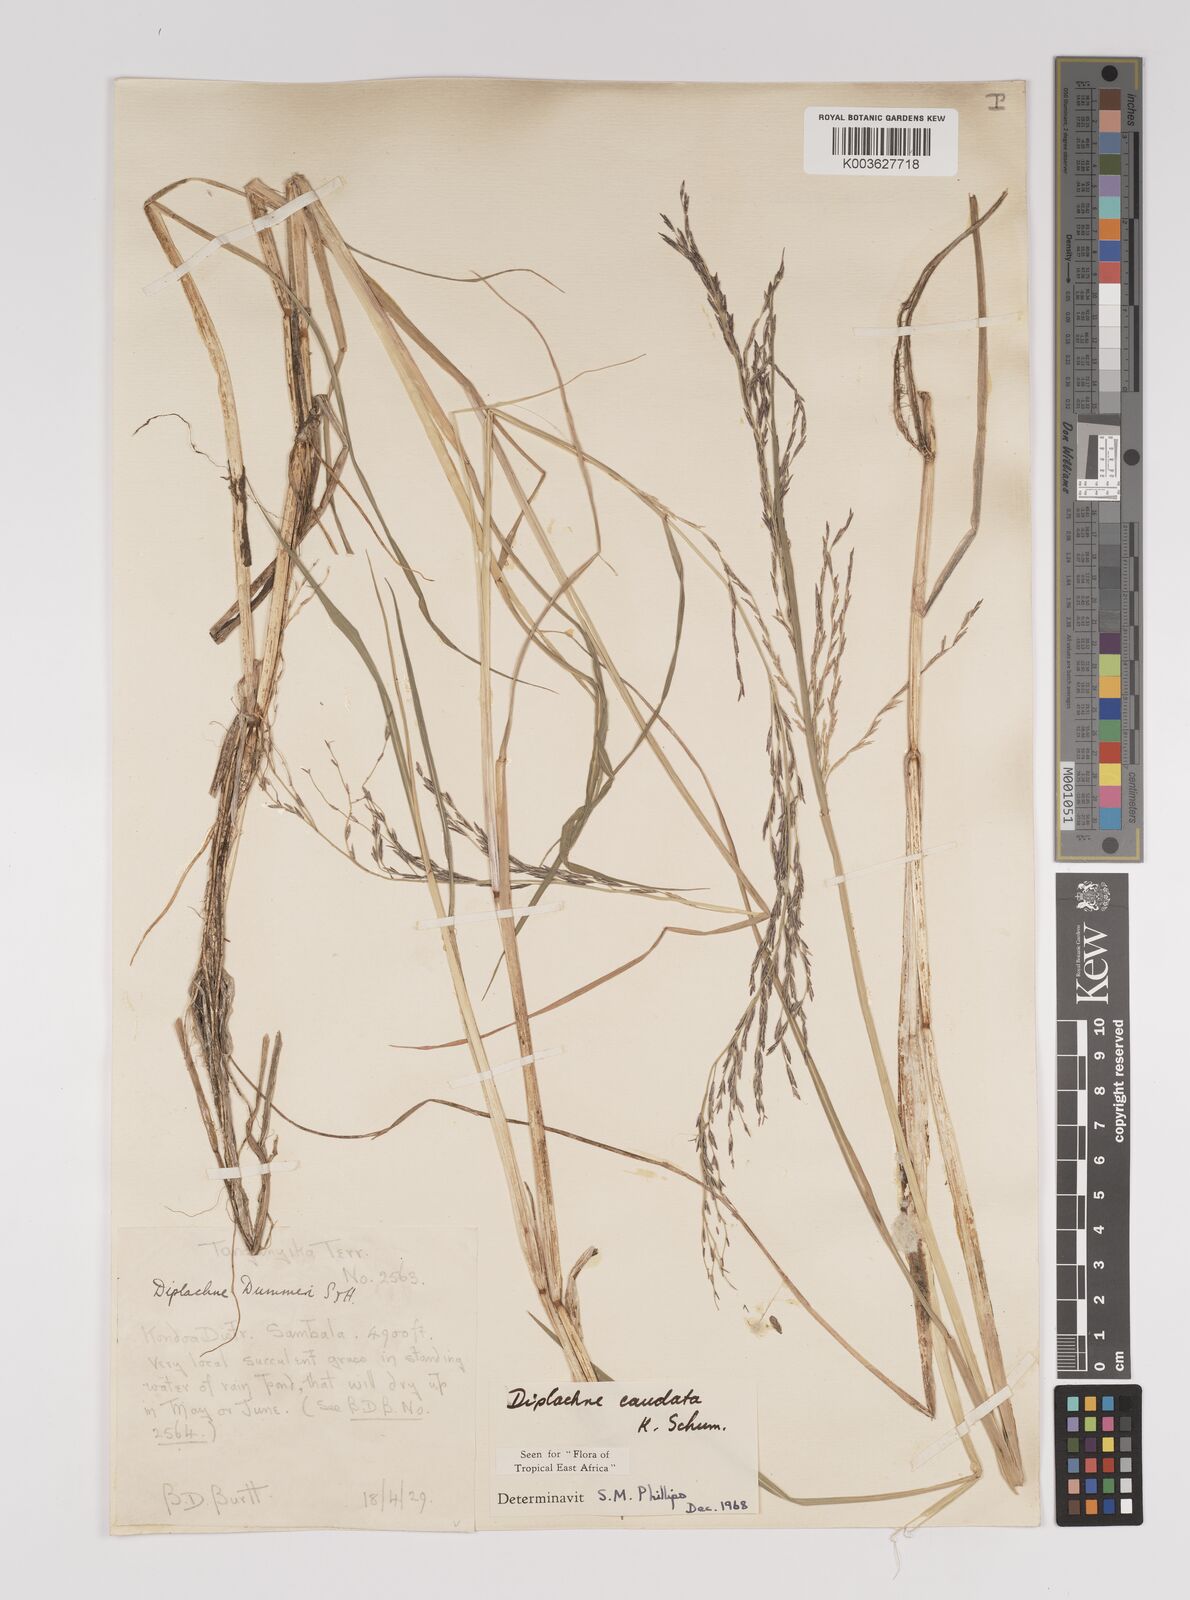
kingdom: Plantae
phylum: Tracheophyta
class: Liliopsida
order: Poales
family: Poaceae
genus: Leptochloa
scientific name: Leptochloa caudata
